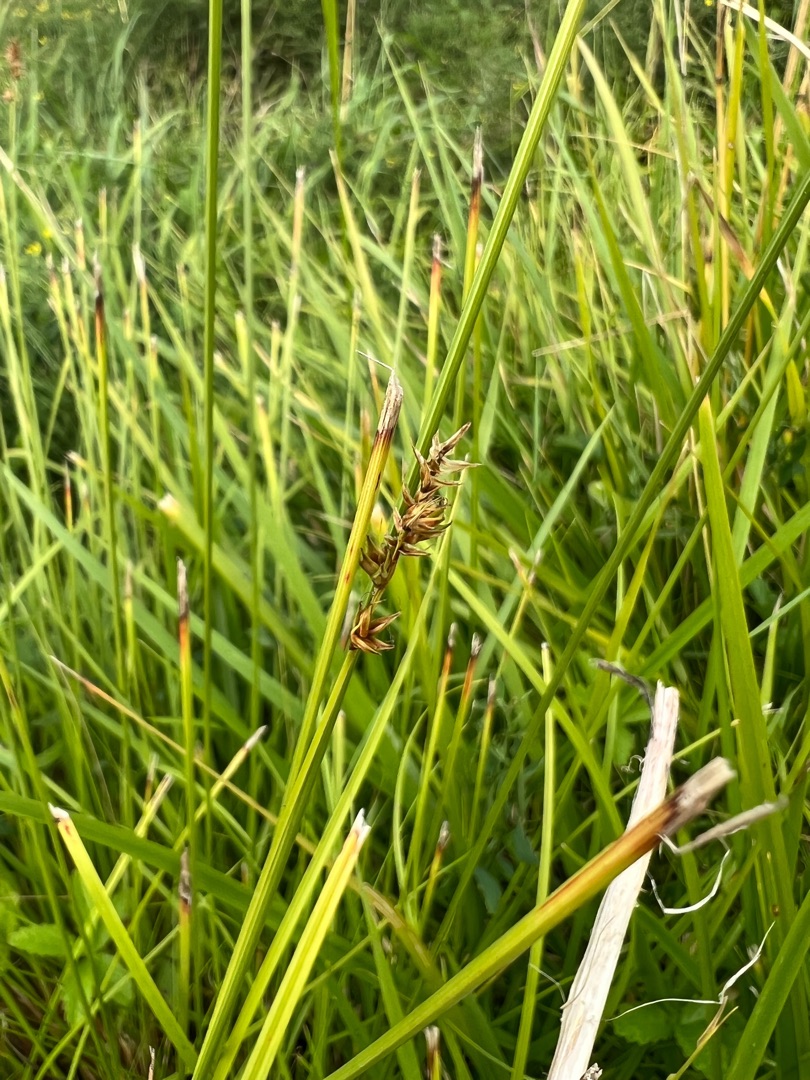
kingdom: Plantae
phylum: Tracheophyta
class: Liliopsida
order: Poales
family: Cyperaceae
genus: Carex
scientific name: Carex spicata
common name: Spidskapslet star
